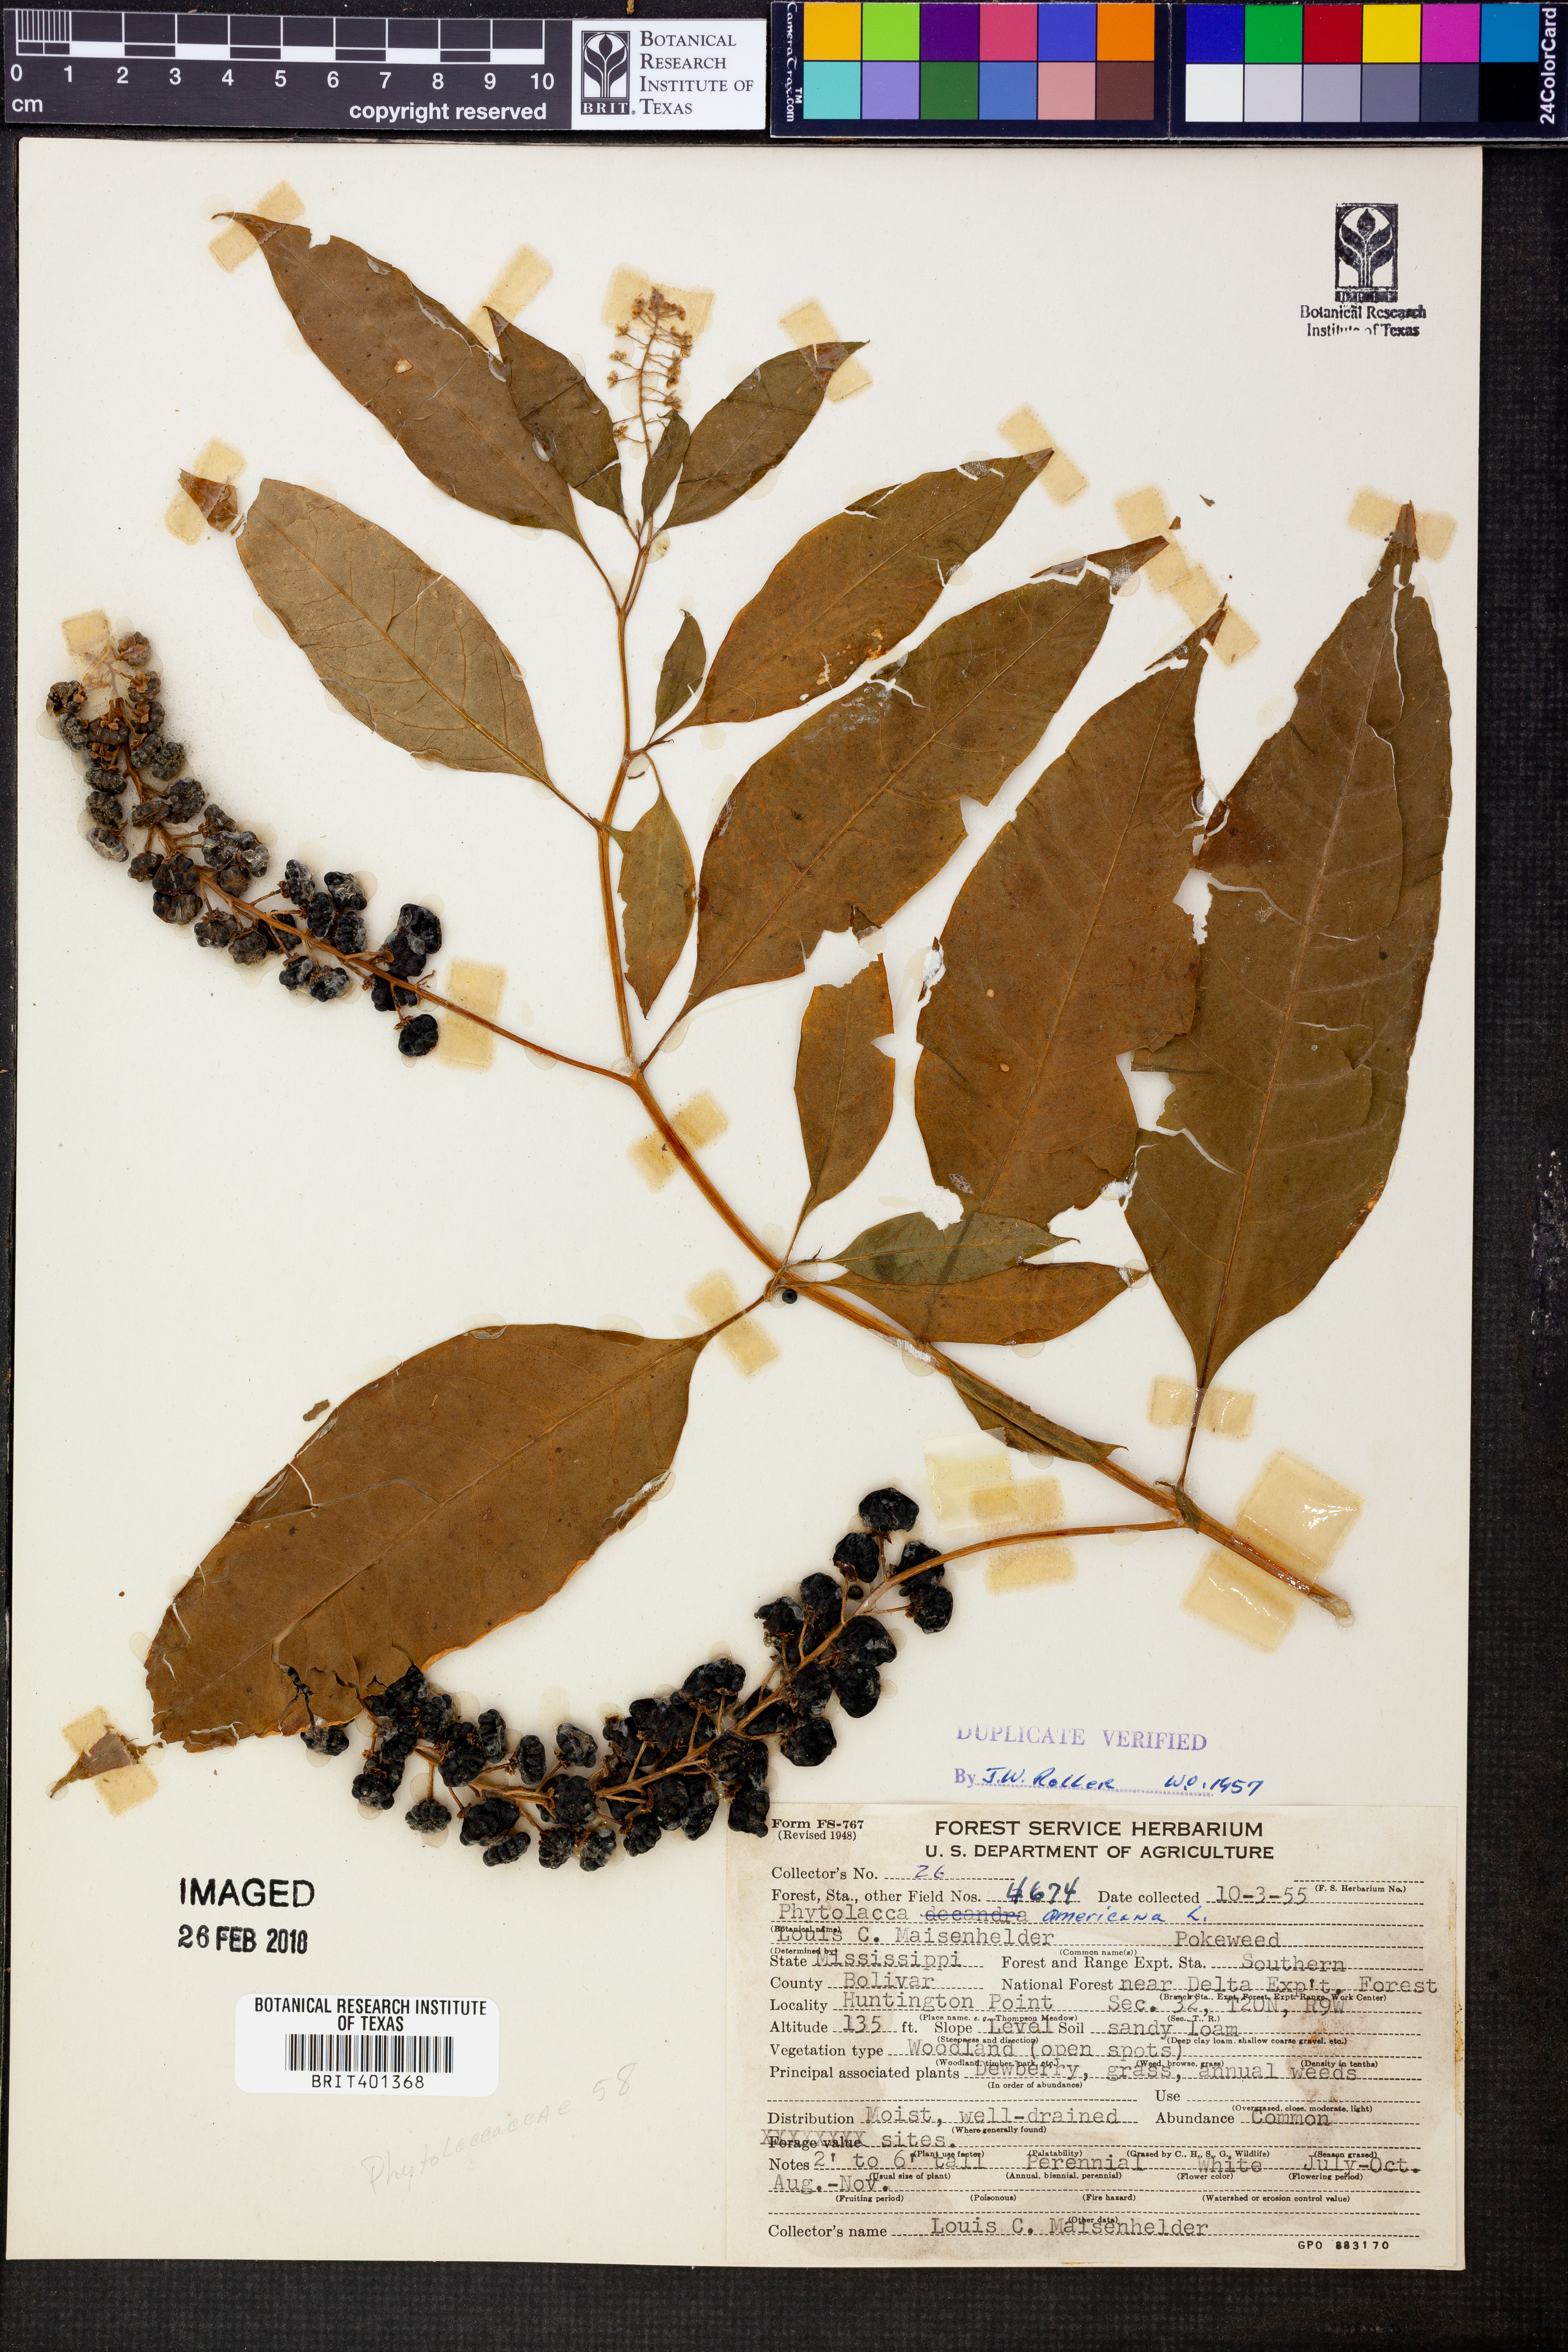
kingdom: Plantae
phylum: Tracheophyta
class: Magnoliopsida
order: Caryophyllales
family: Phytolaccaceae
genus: Phytolacca
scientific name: Phytolacca americana
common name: American pokeweed
